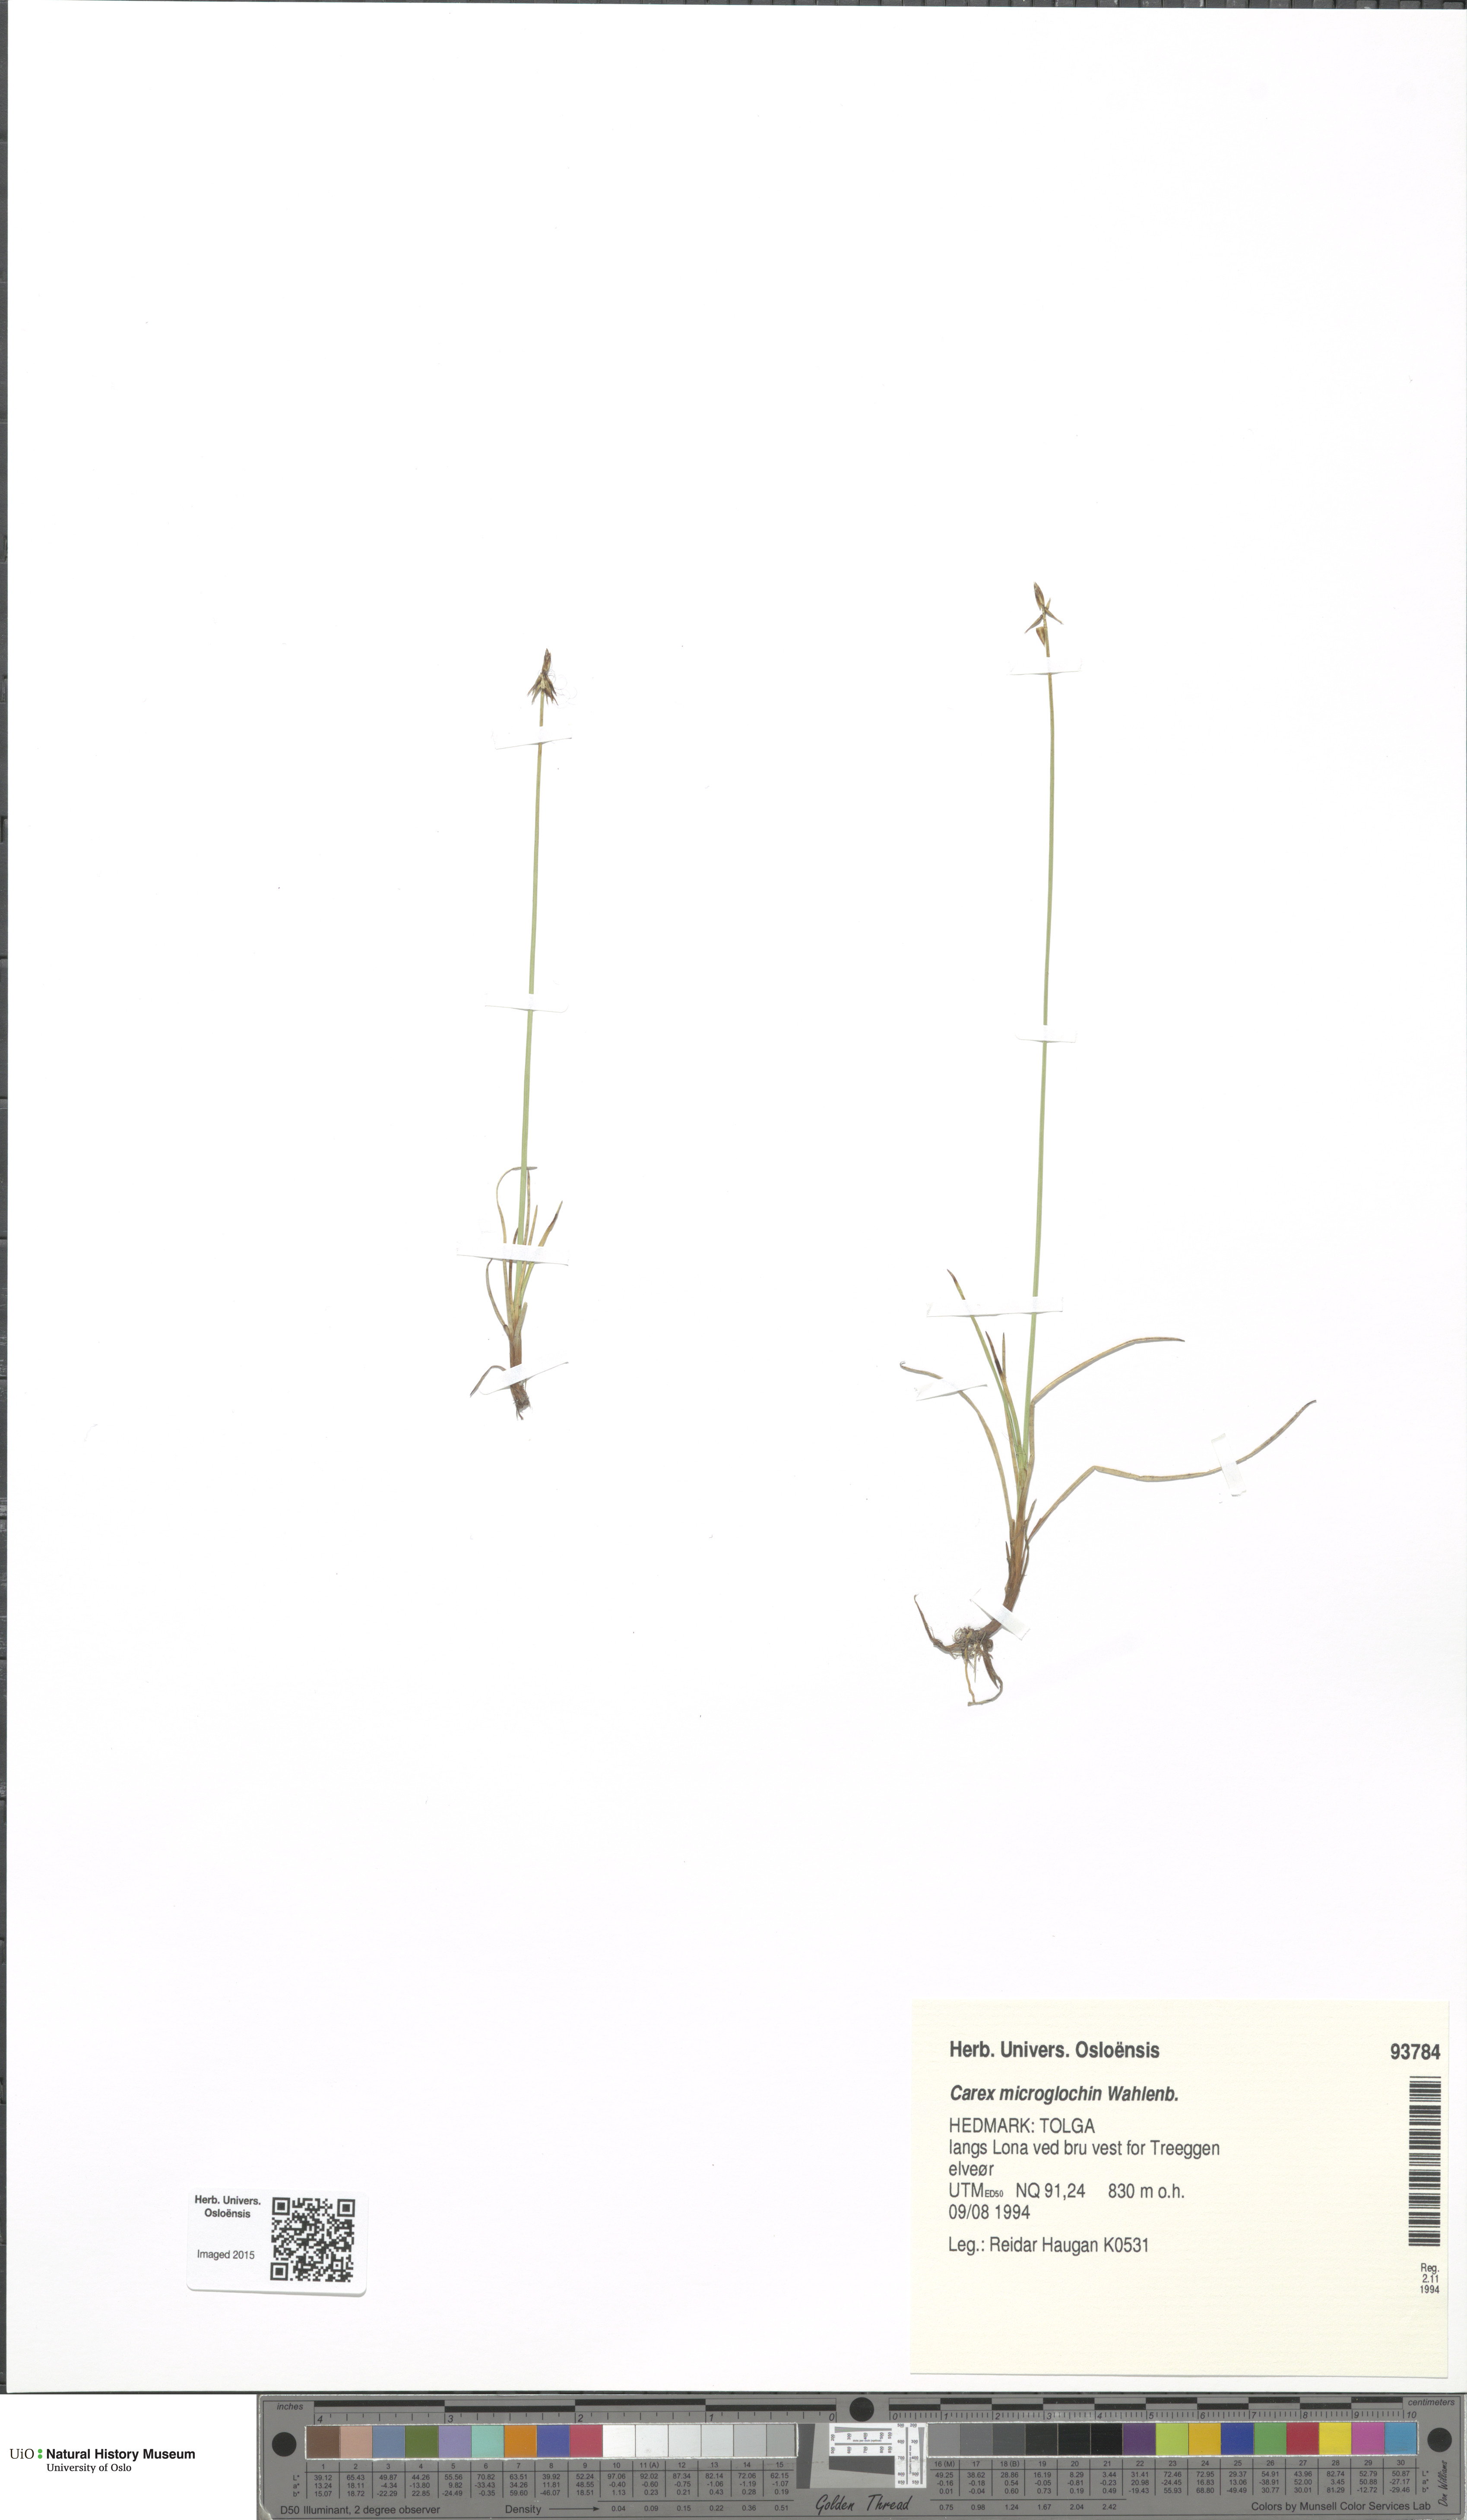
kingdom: Plantae
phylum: Tracheophyta
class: Liliopsida
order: Poales
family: Cyperaceae
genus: Carex
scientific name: Carex microglochin
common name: Bristle sedge
